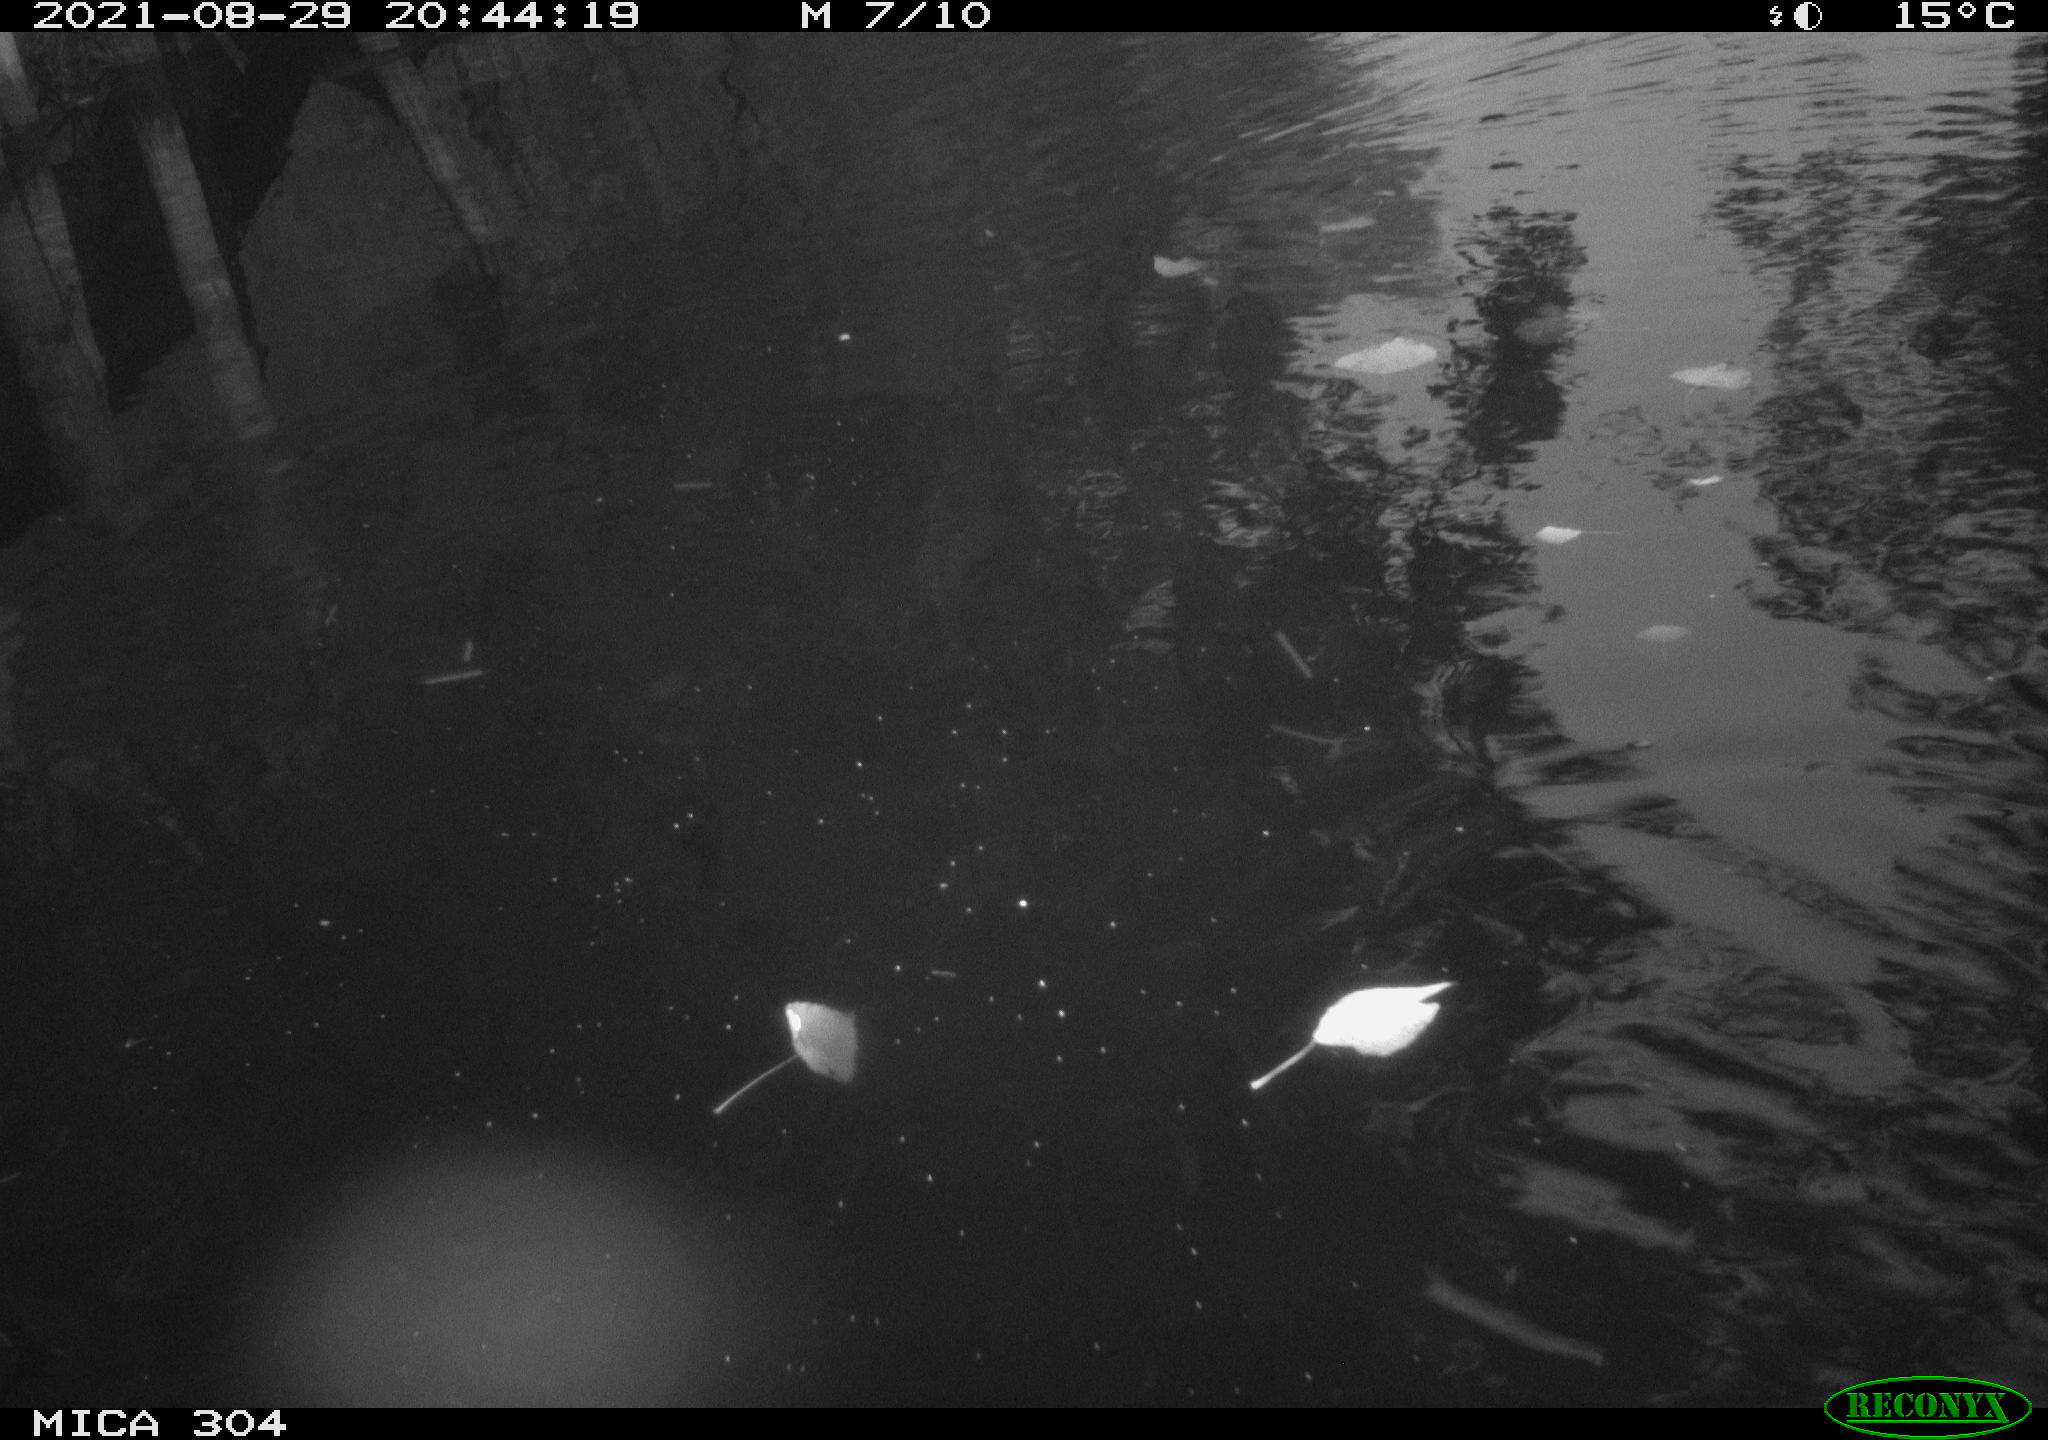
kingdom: Animalia
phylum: Chordata
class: Mammalia
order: Rodentia
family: Muridae
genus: Rattus
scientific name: Rattus norvegicus
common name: Brown rat
